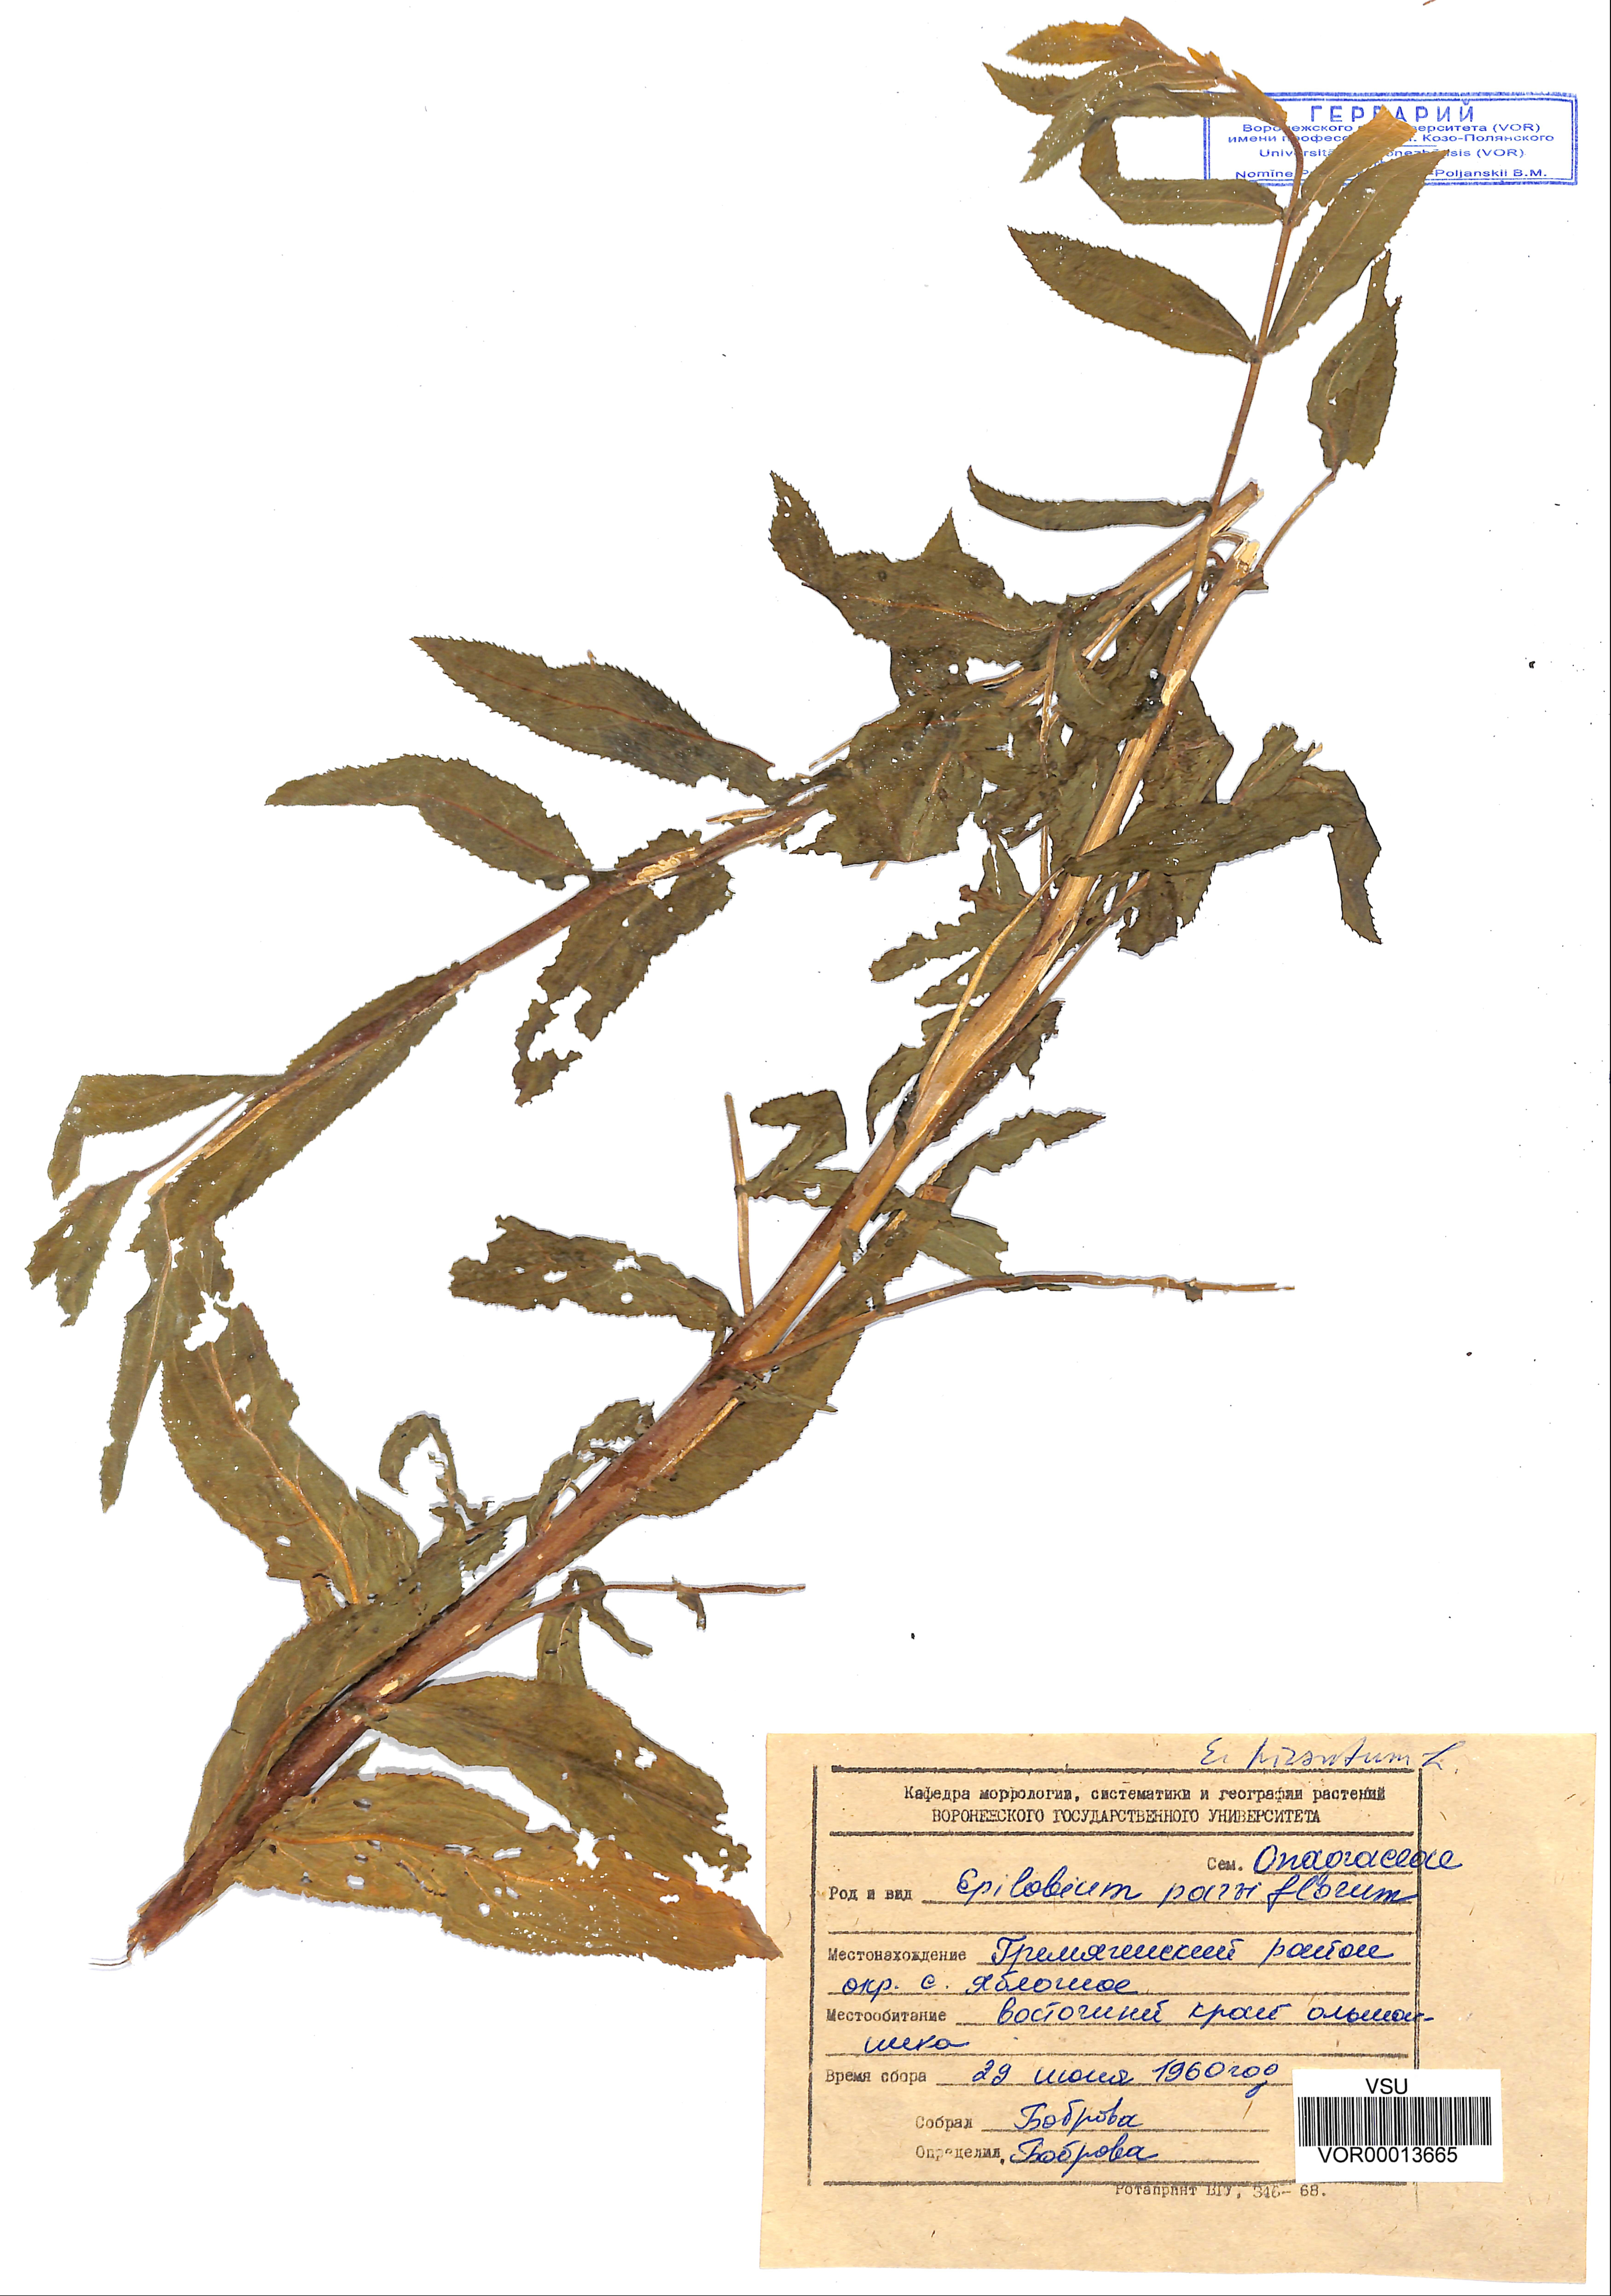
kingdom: Plantae
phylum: Tracheophyta
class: Magnoliopsida
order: Myrtales
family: Onagraceae
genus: Epilobium
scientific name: Epilobium parviflorum
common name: Hoary willowherb
